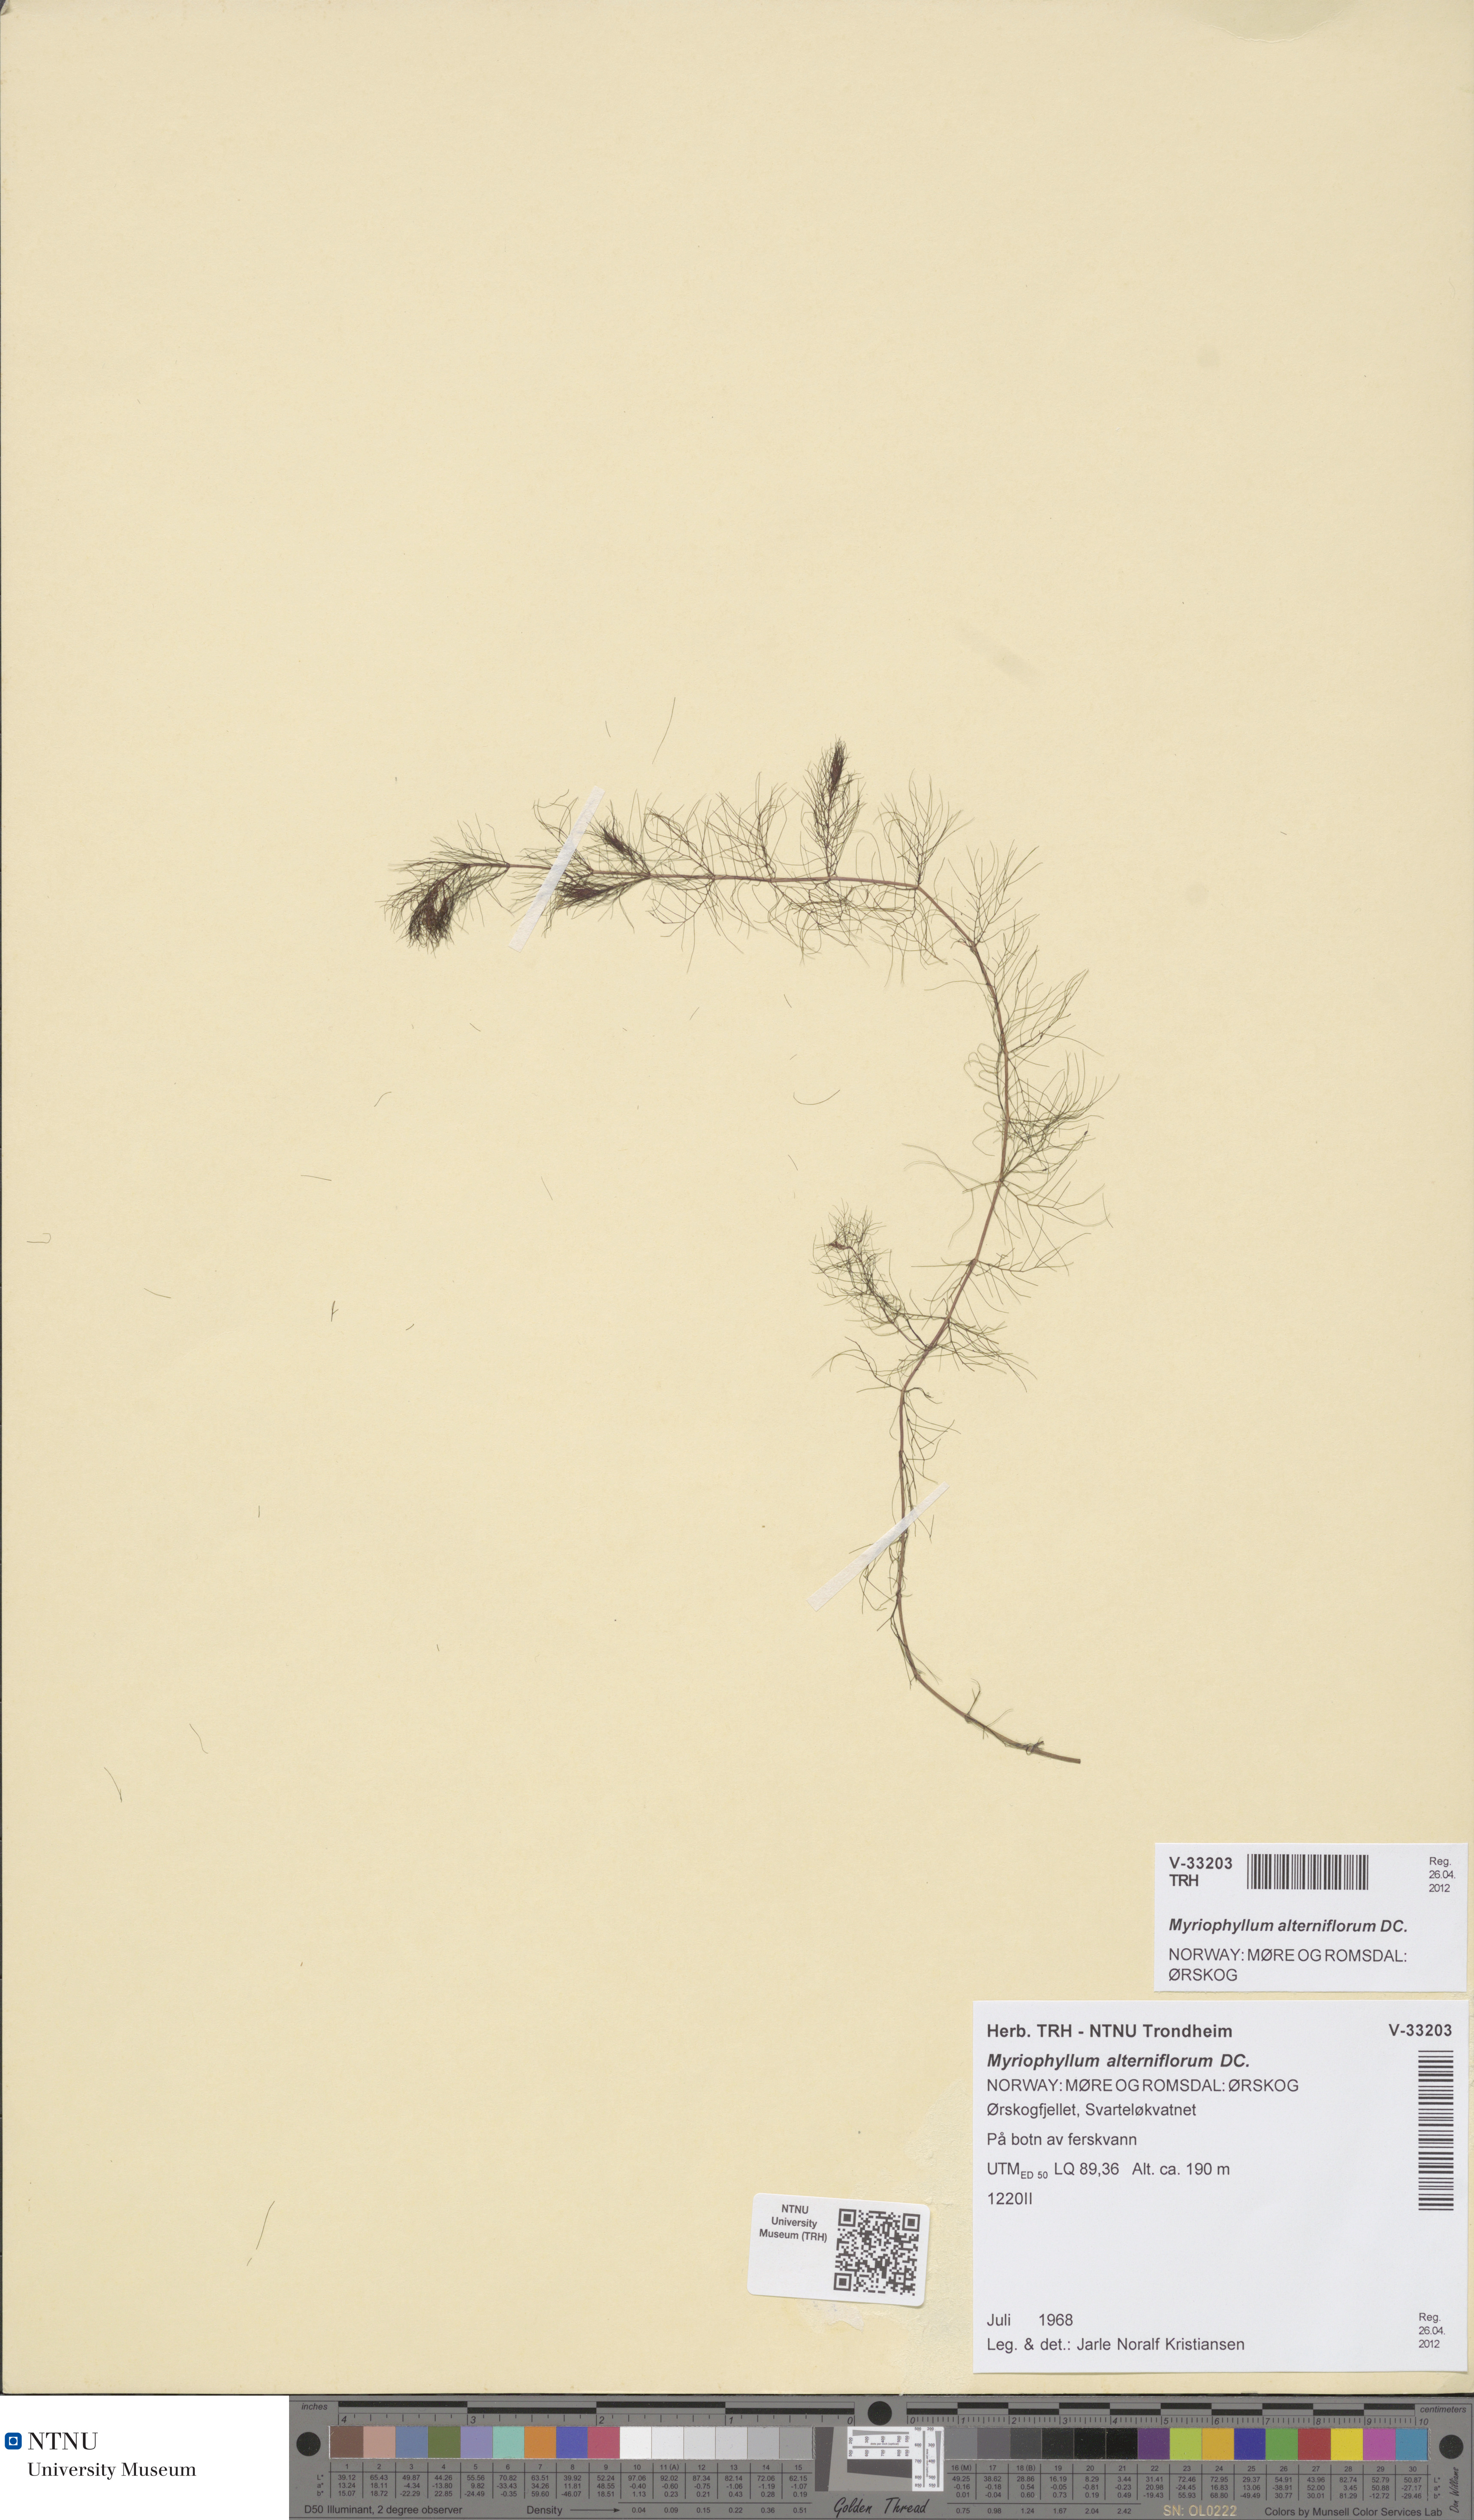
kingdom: Plantae
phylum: Tracheophyta
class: Magnoliopsida
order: Saxifragales
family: Haloragaceae
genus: Myriophyllum
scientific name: Myriophyllum alterniflorum
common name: Alternate water-milfoil
